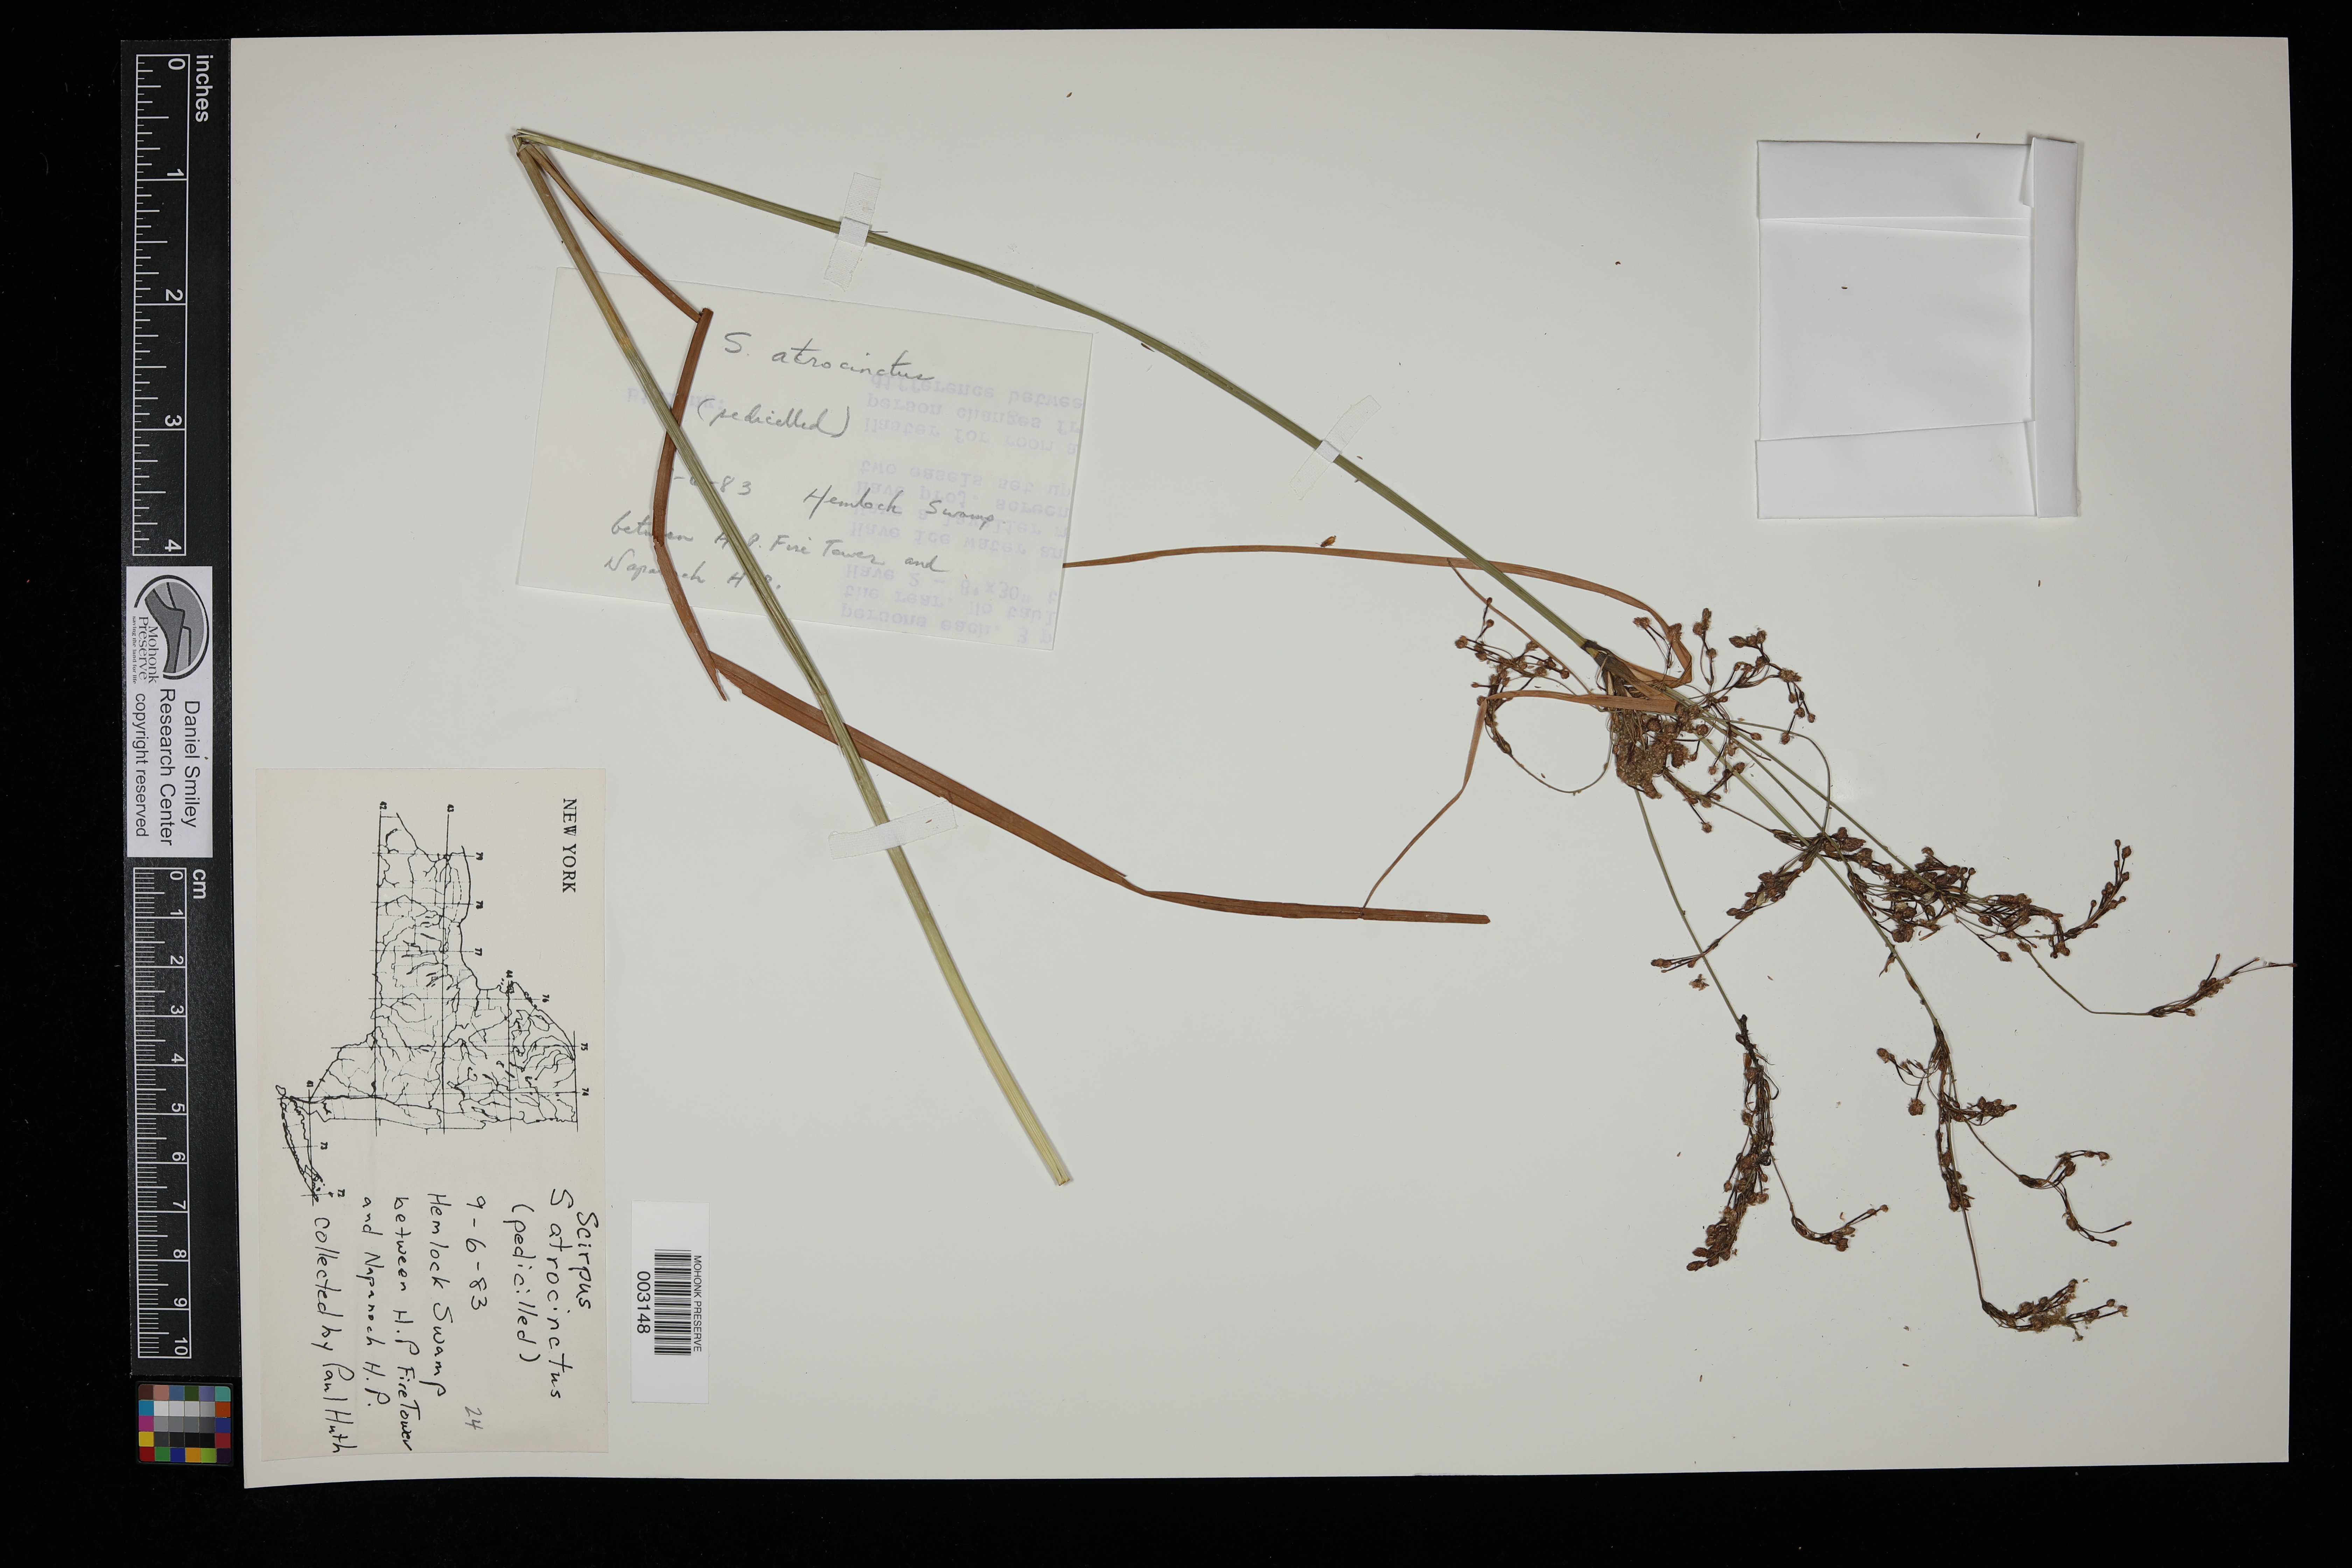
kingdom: Plantae
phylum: Tracheophyta
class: Liliopsida
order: Poales
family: Cyperaceae
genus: Scirpus
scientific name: Scirpus atrocinctus
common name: Black-girdled bulrush
